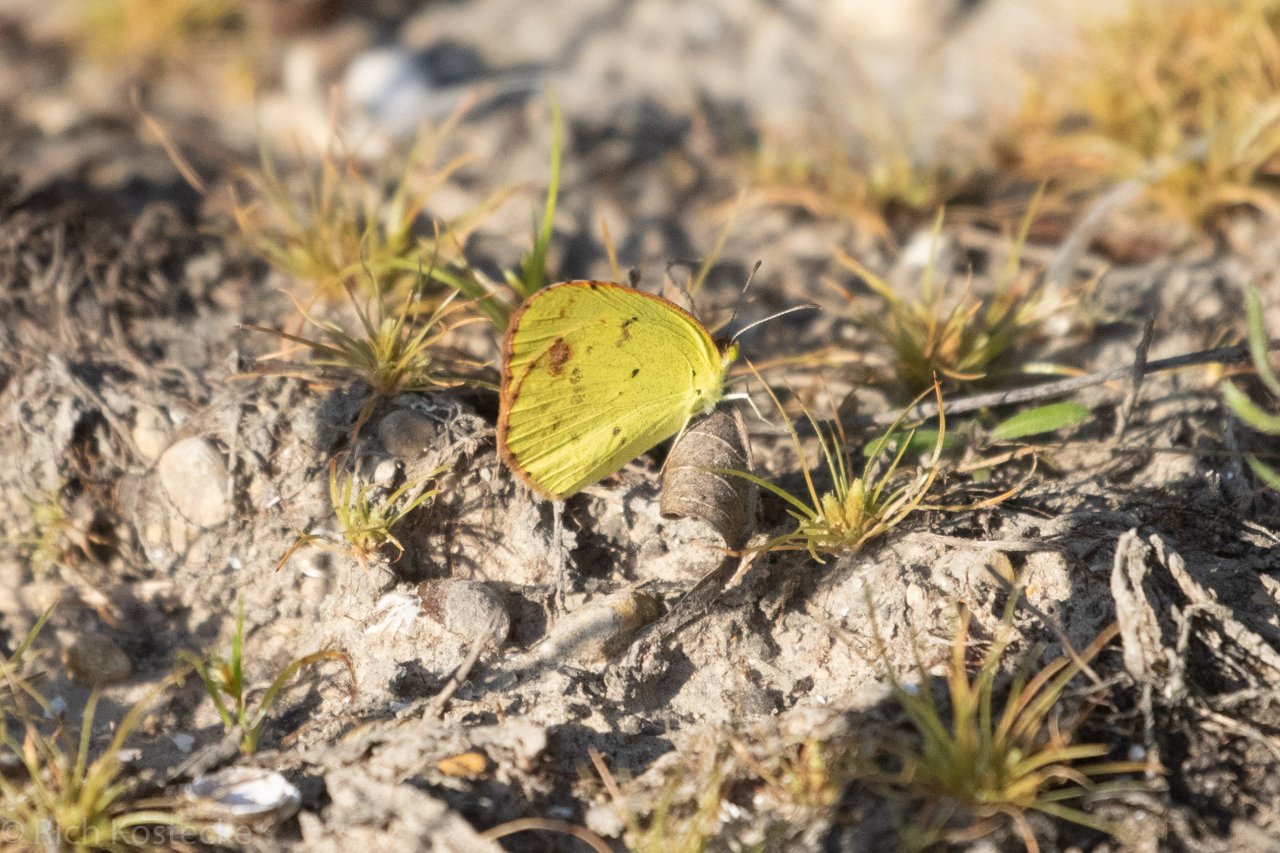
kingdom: Animalia
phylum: Arthropoda
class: Insecta
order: Lepidoptera
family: Pieridae
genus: Pyrisitia
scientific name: Pyrisitia lisa
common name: Little Yellow
